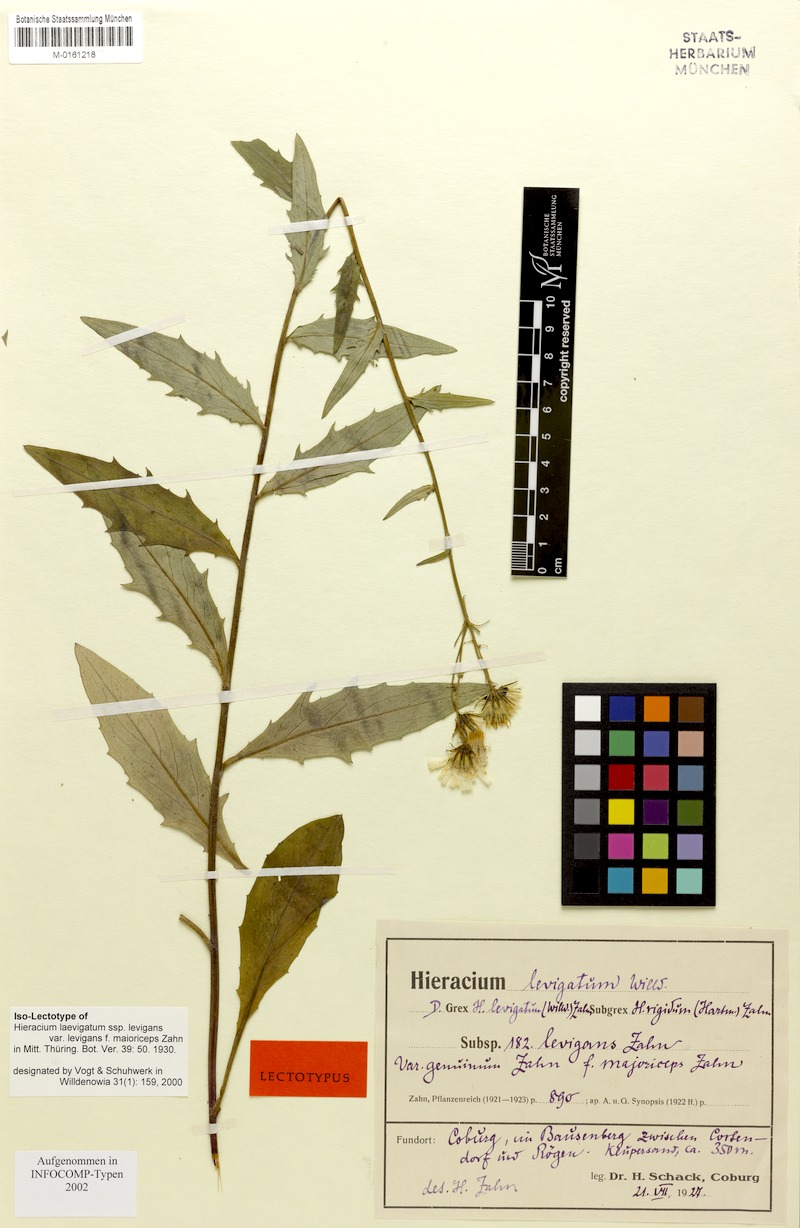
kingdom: Plantae
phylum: Tracheophyta
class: Magnoliopsida
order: Asterales
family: Asteraceae
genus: Hieracium
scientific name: Hieracium laevigatum
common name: Smooth hawkweed
